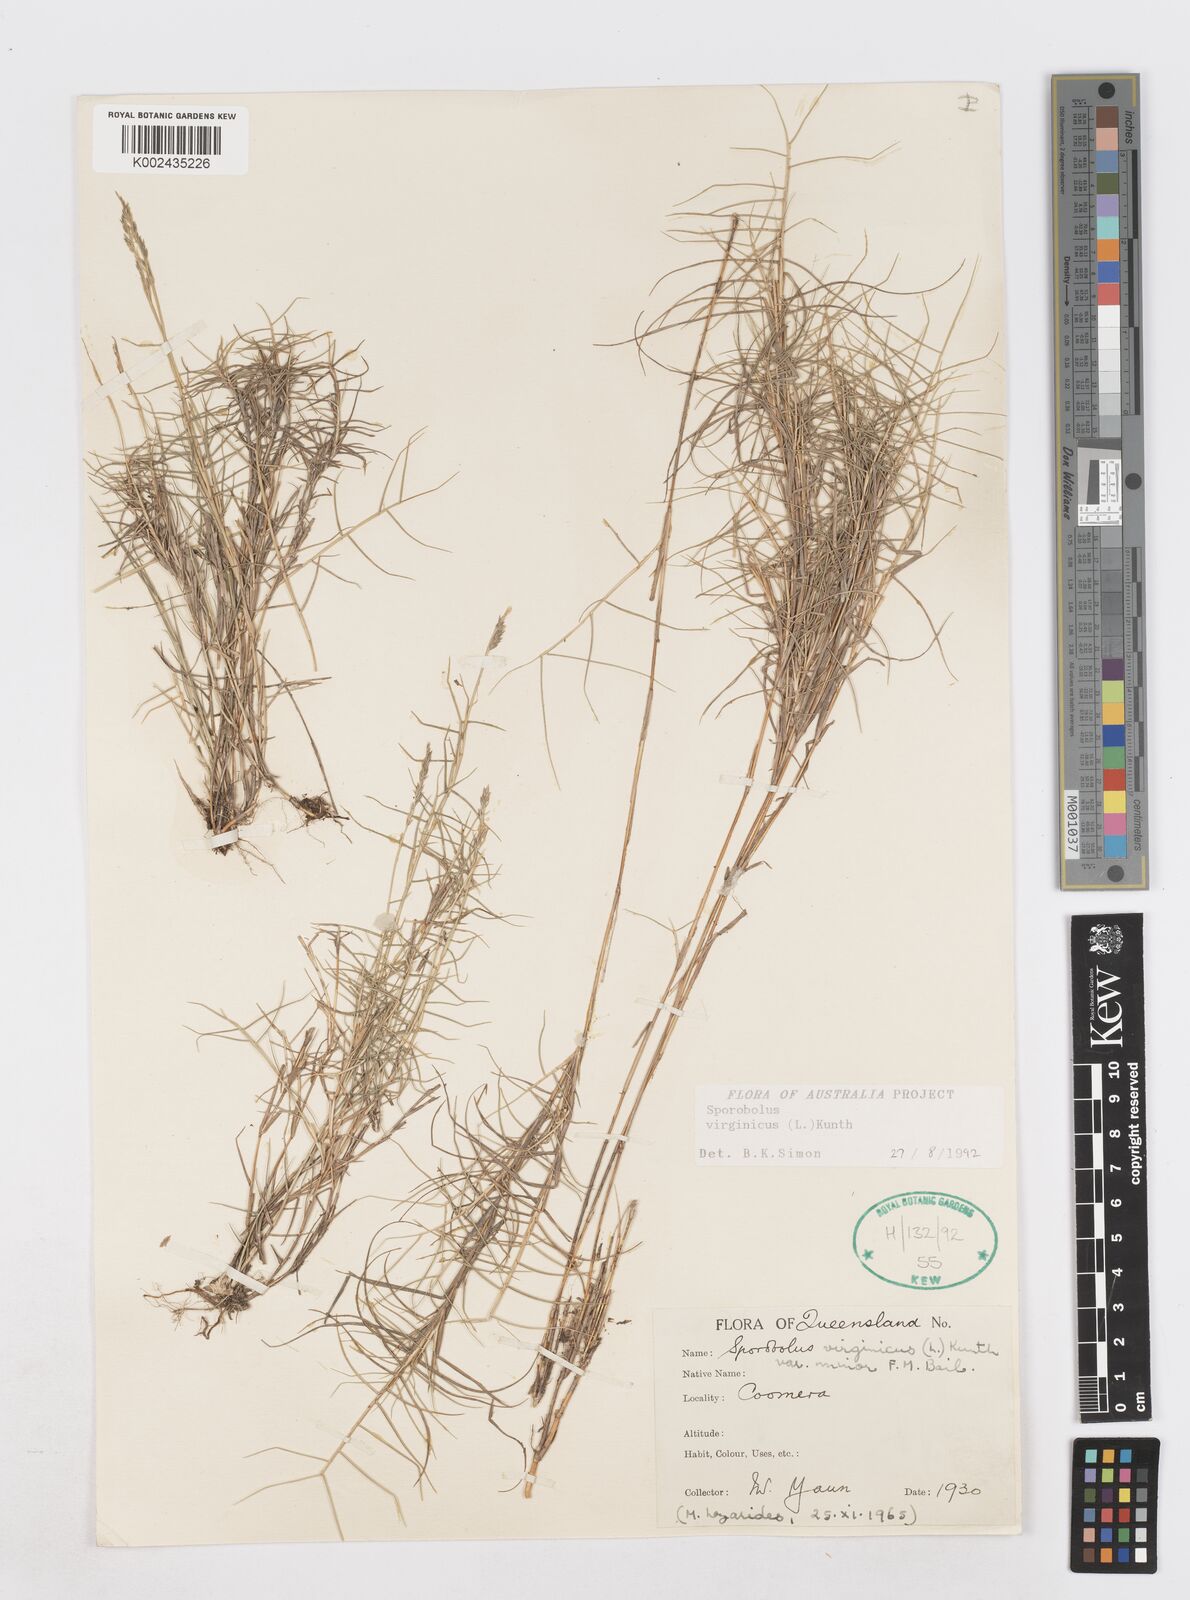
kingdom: Plantae
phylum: Tracheophyta
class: Liliopsida
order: Poales
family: Poaceae
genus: Sporobolus
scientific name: Sporobolus virginicus
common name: Beach dropseed
